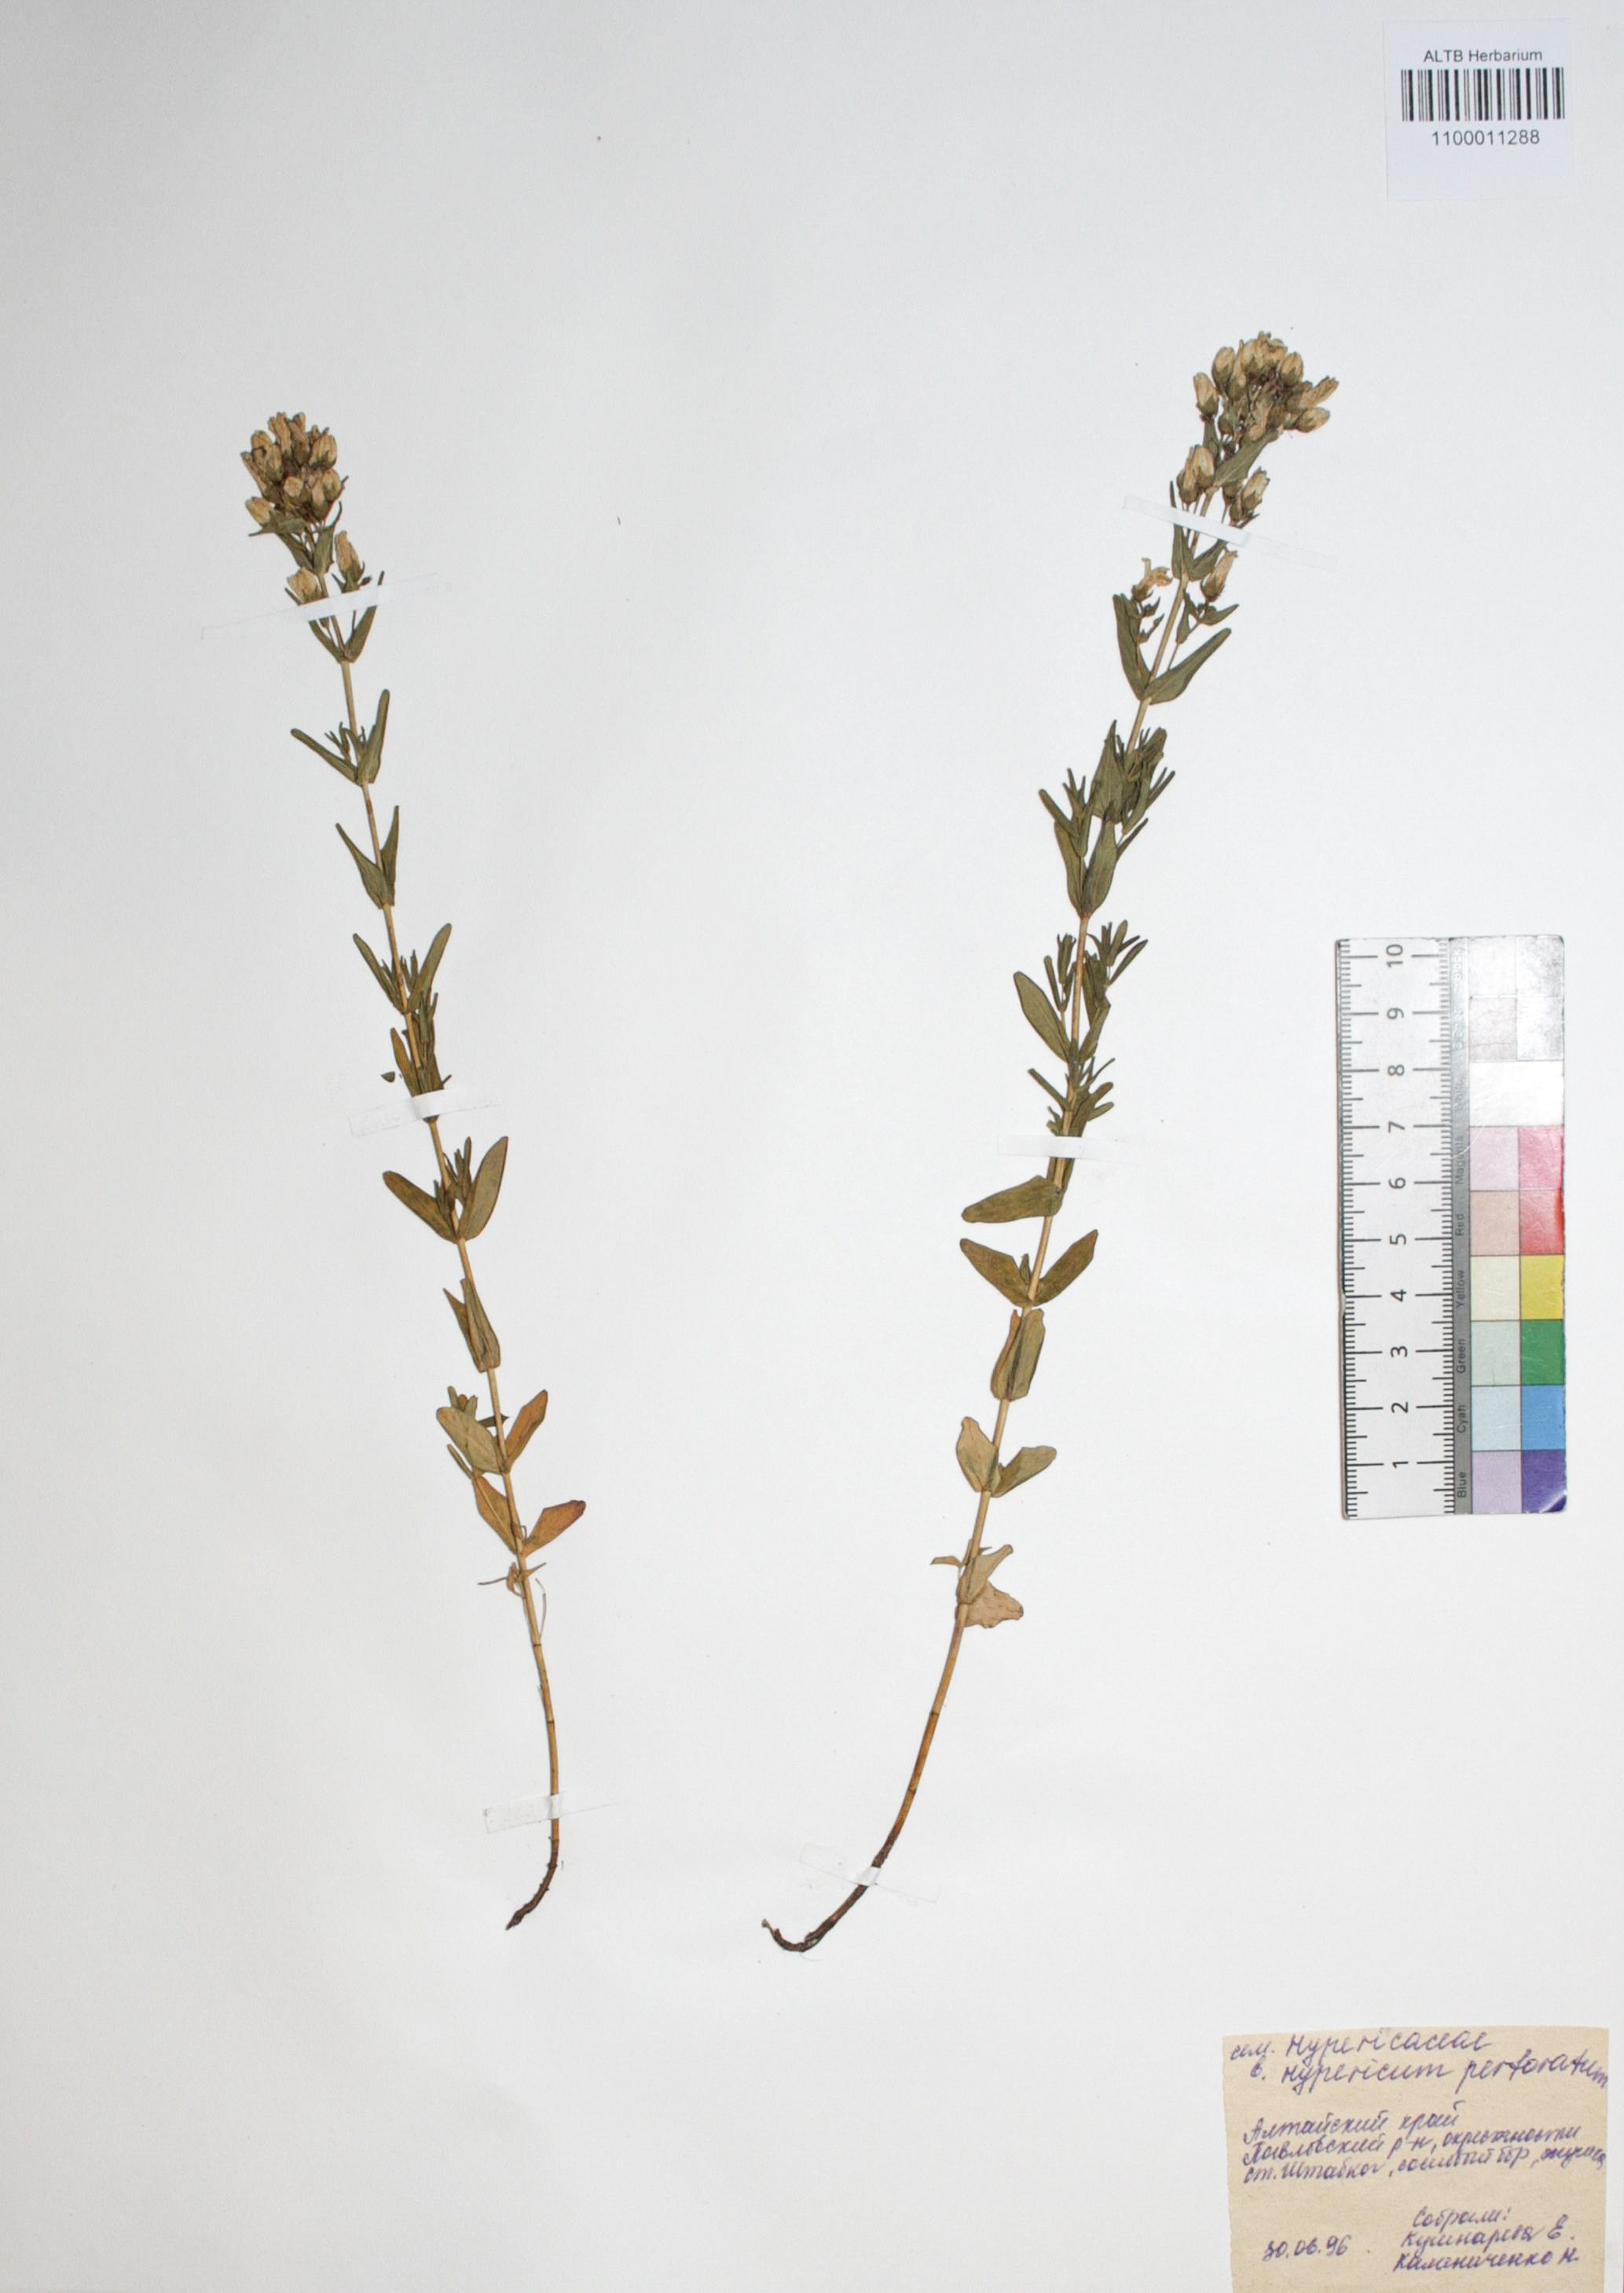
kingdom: Plantae
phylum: Tracheophyta
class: Magnoliopsida
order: Malpighiales
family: Hypericaceae
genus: Hypericum
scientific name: Hypericum perforatum
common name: Common st. johnswort
